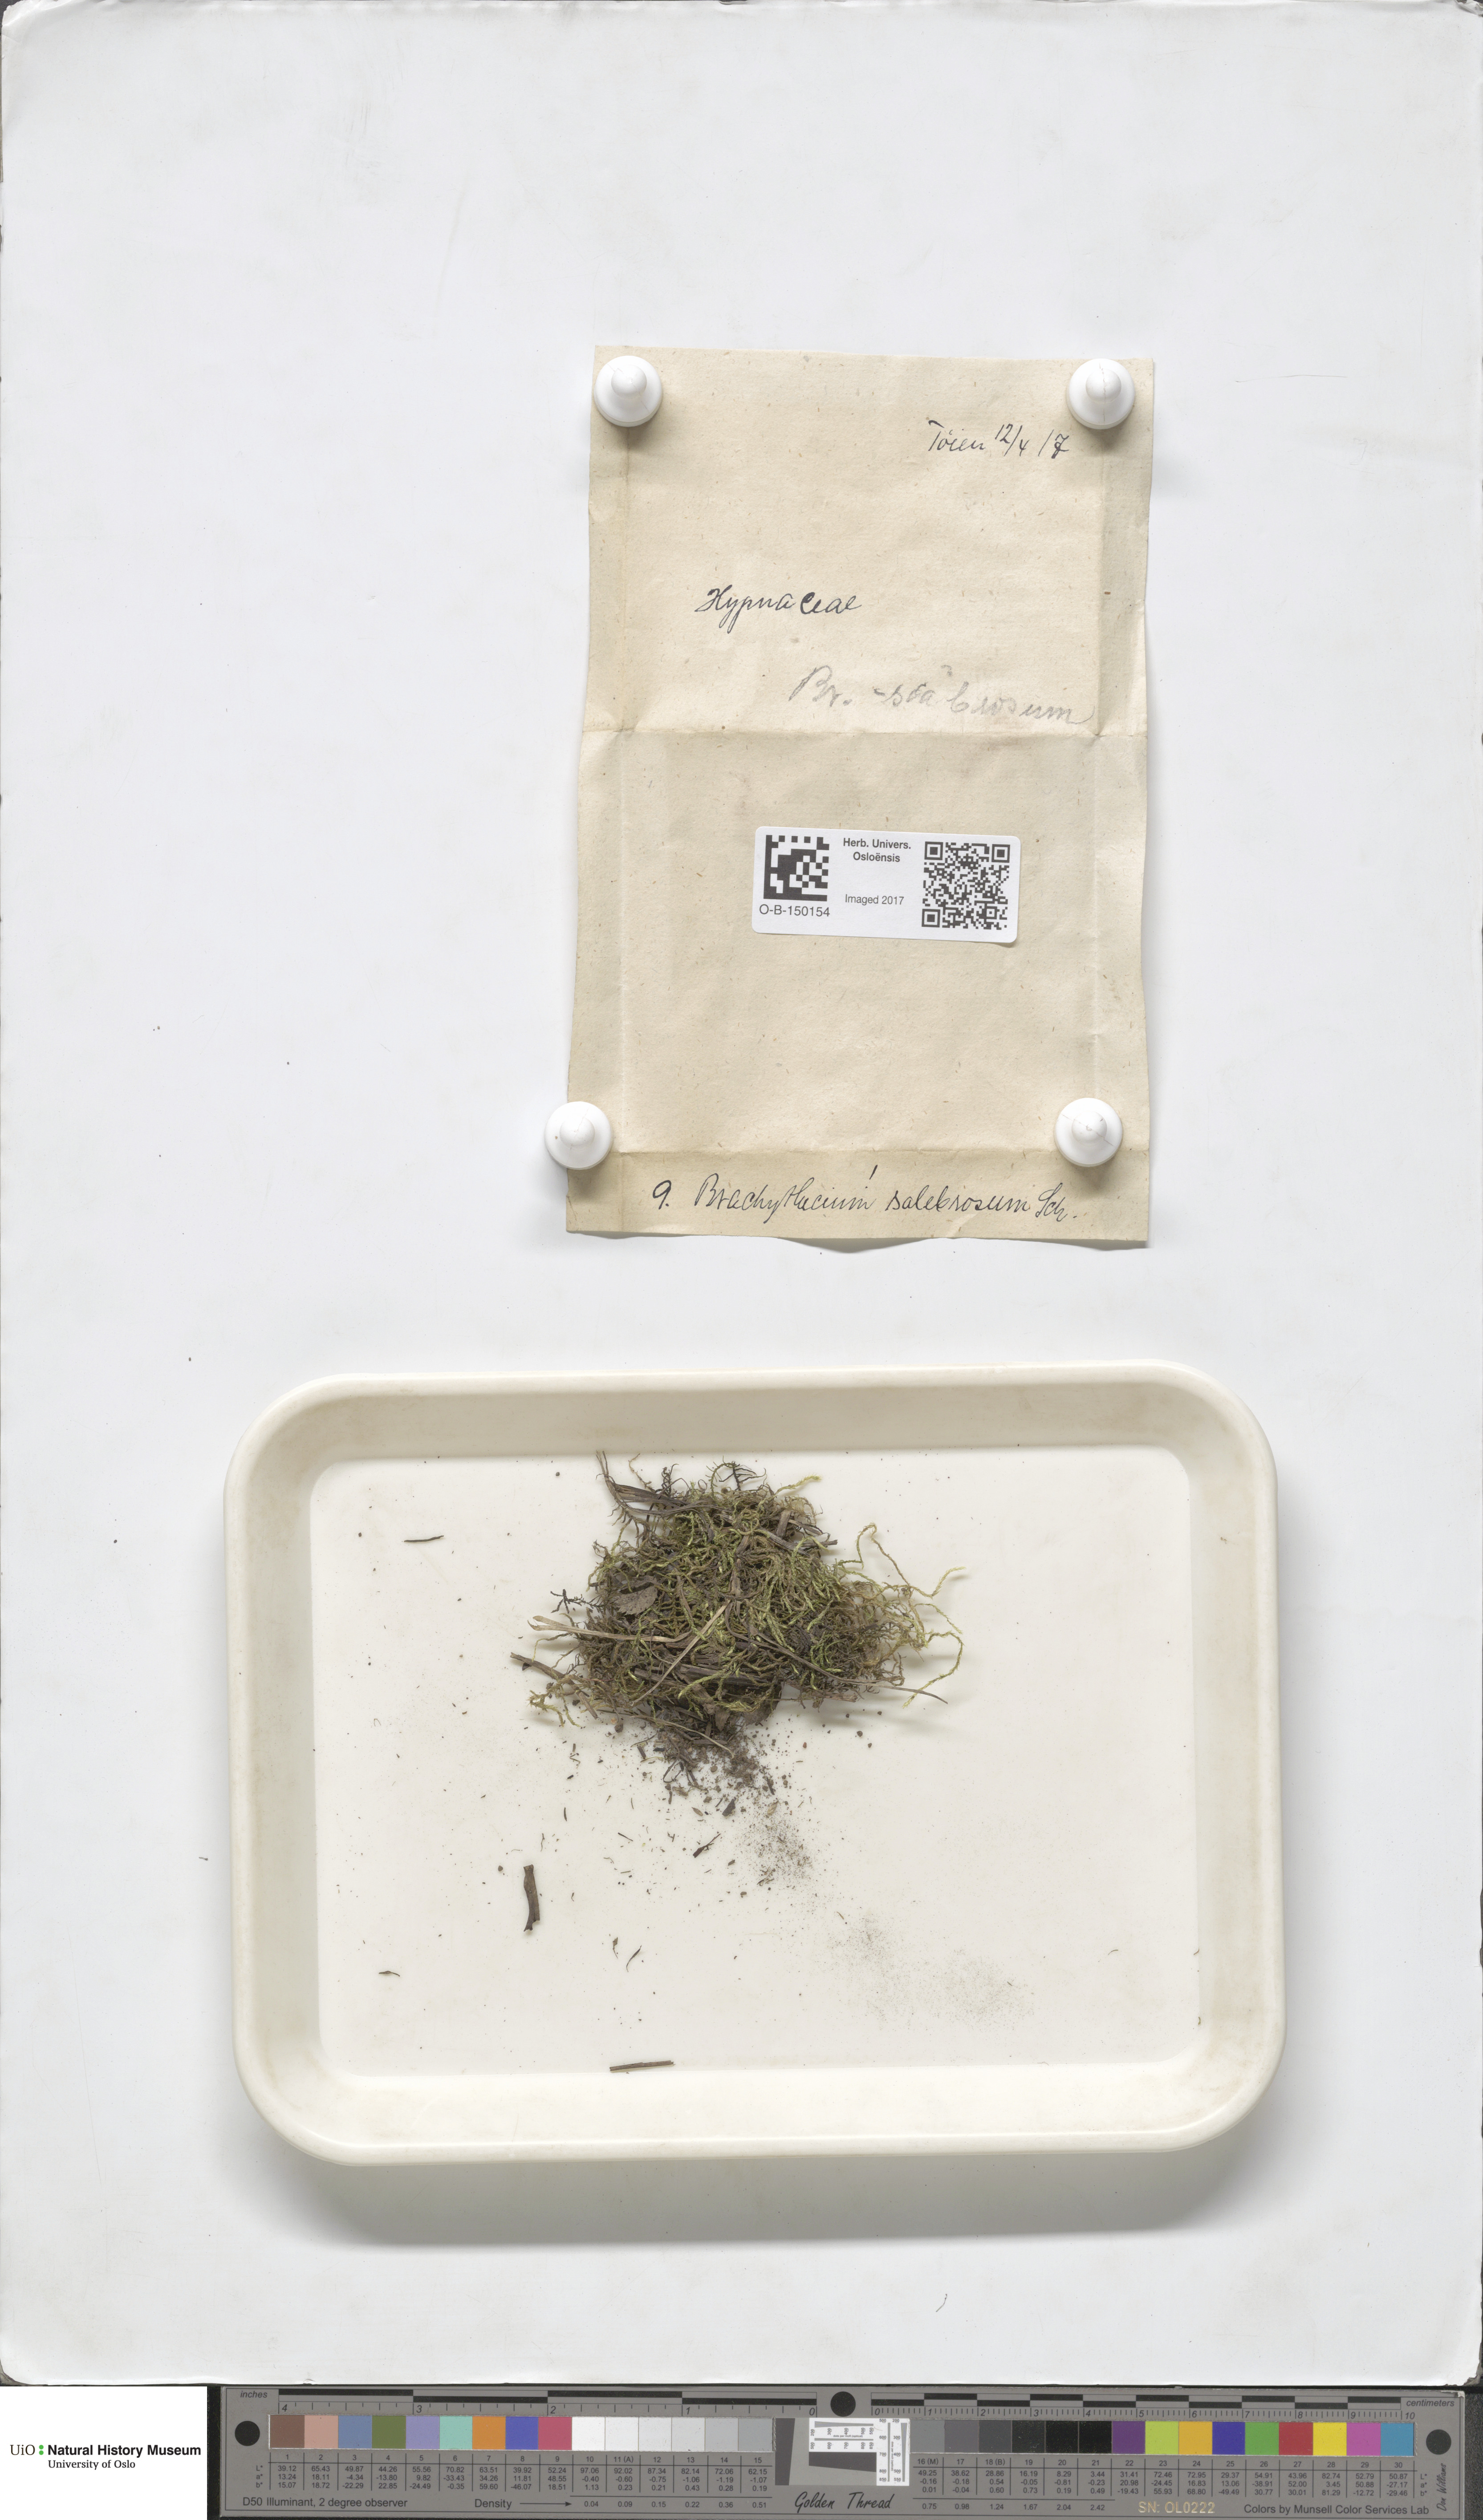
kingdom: Plantae
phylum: Bryophyta
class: Bryopsida
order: Hypnales
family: Brachytheciaceae
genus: Brachythecium
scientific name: Brachythecium salebrosum
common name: Smooth-stalk feather-moss
